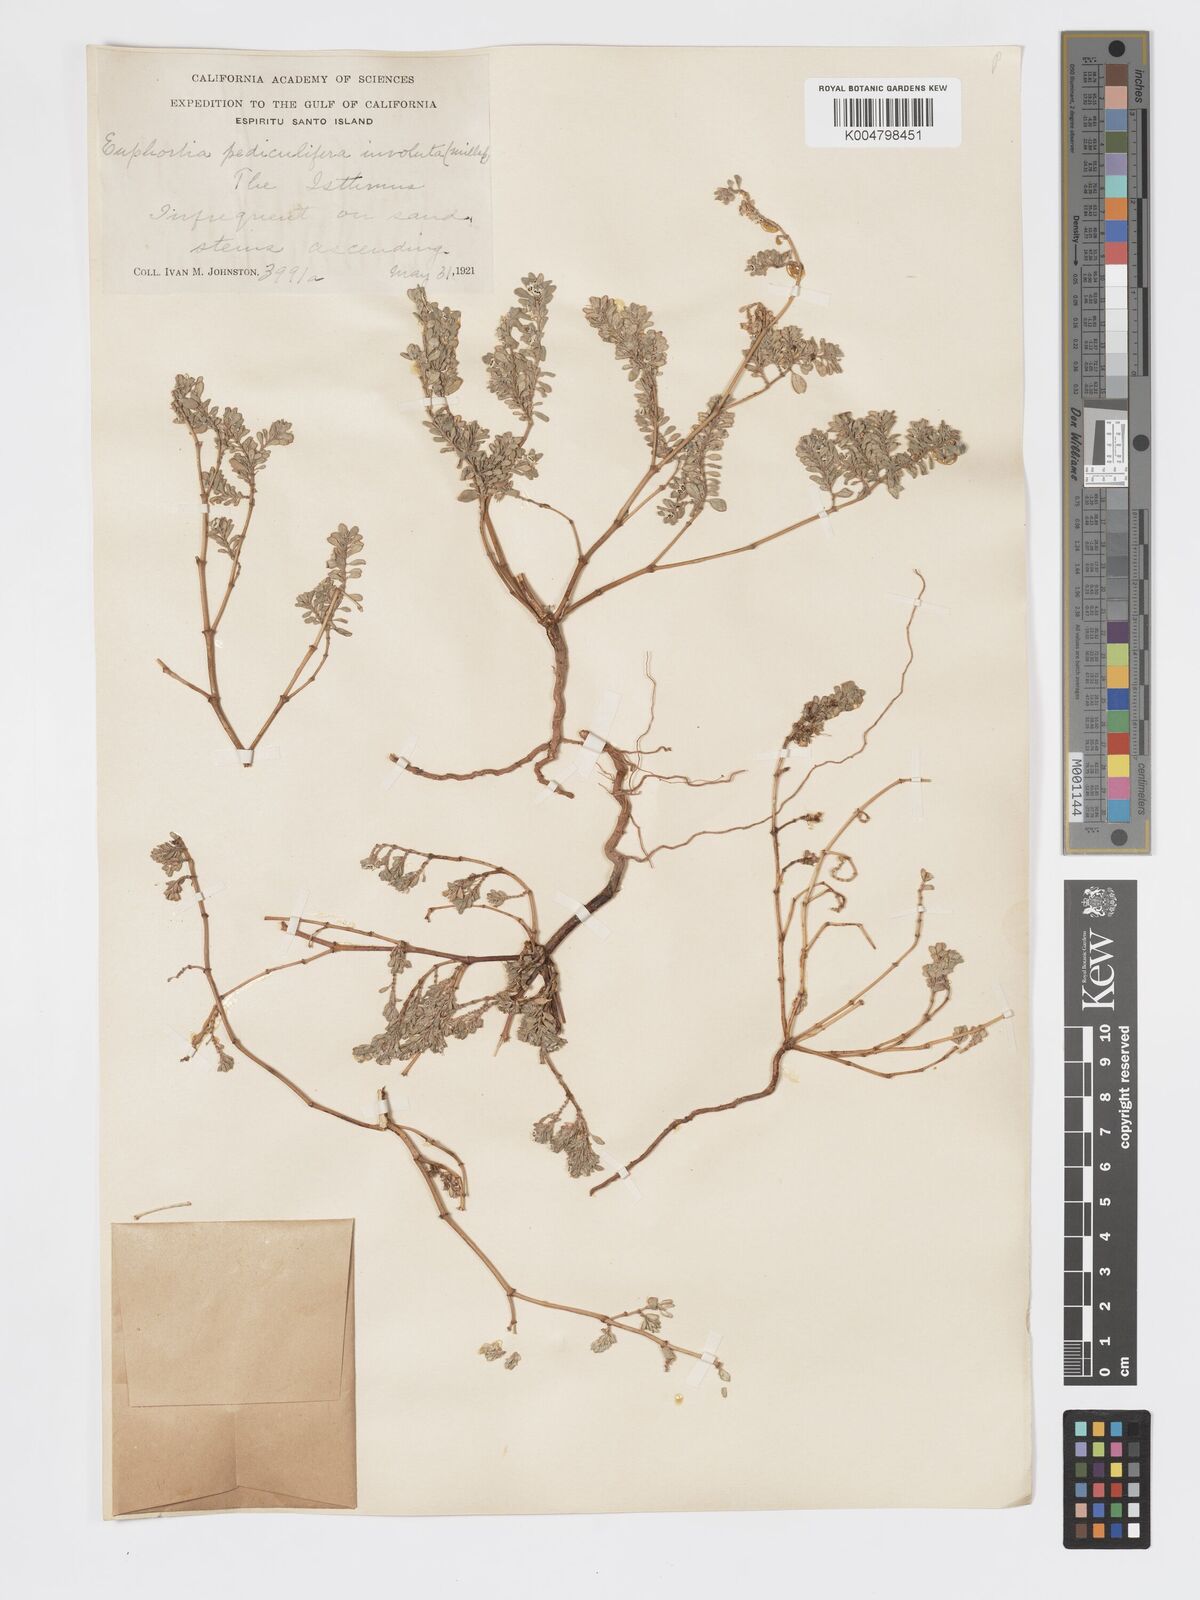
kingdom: Plantae
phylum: Tracheophyta
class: Magnoliopsida
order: Malpighiales
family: Euphorbiaceae
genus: Euphorbia
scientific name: Euphorbia pediculifera
